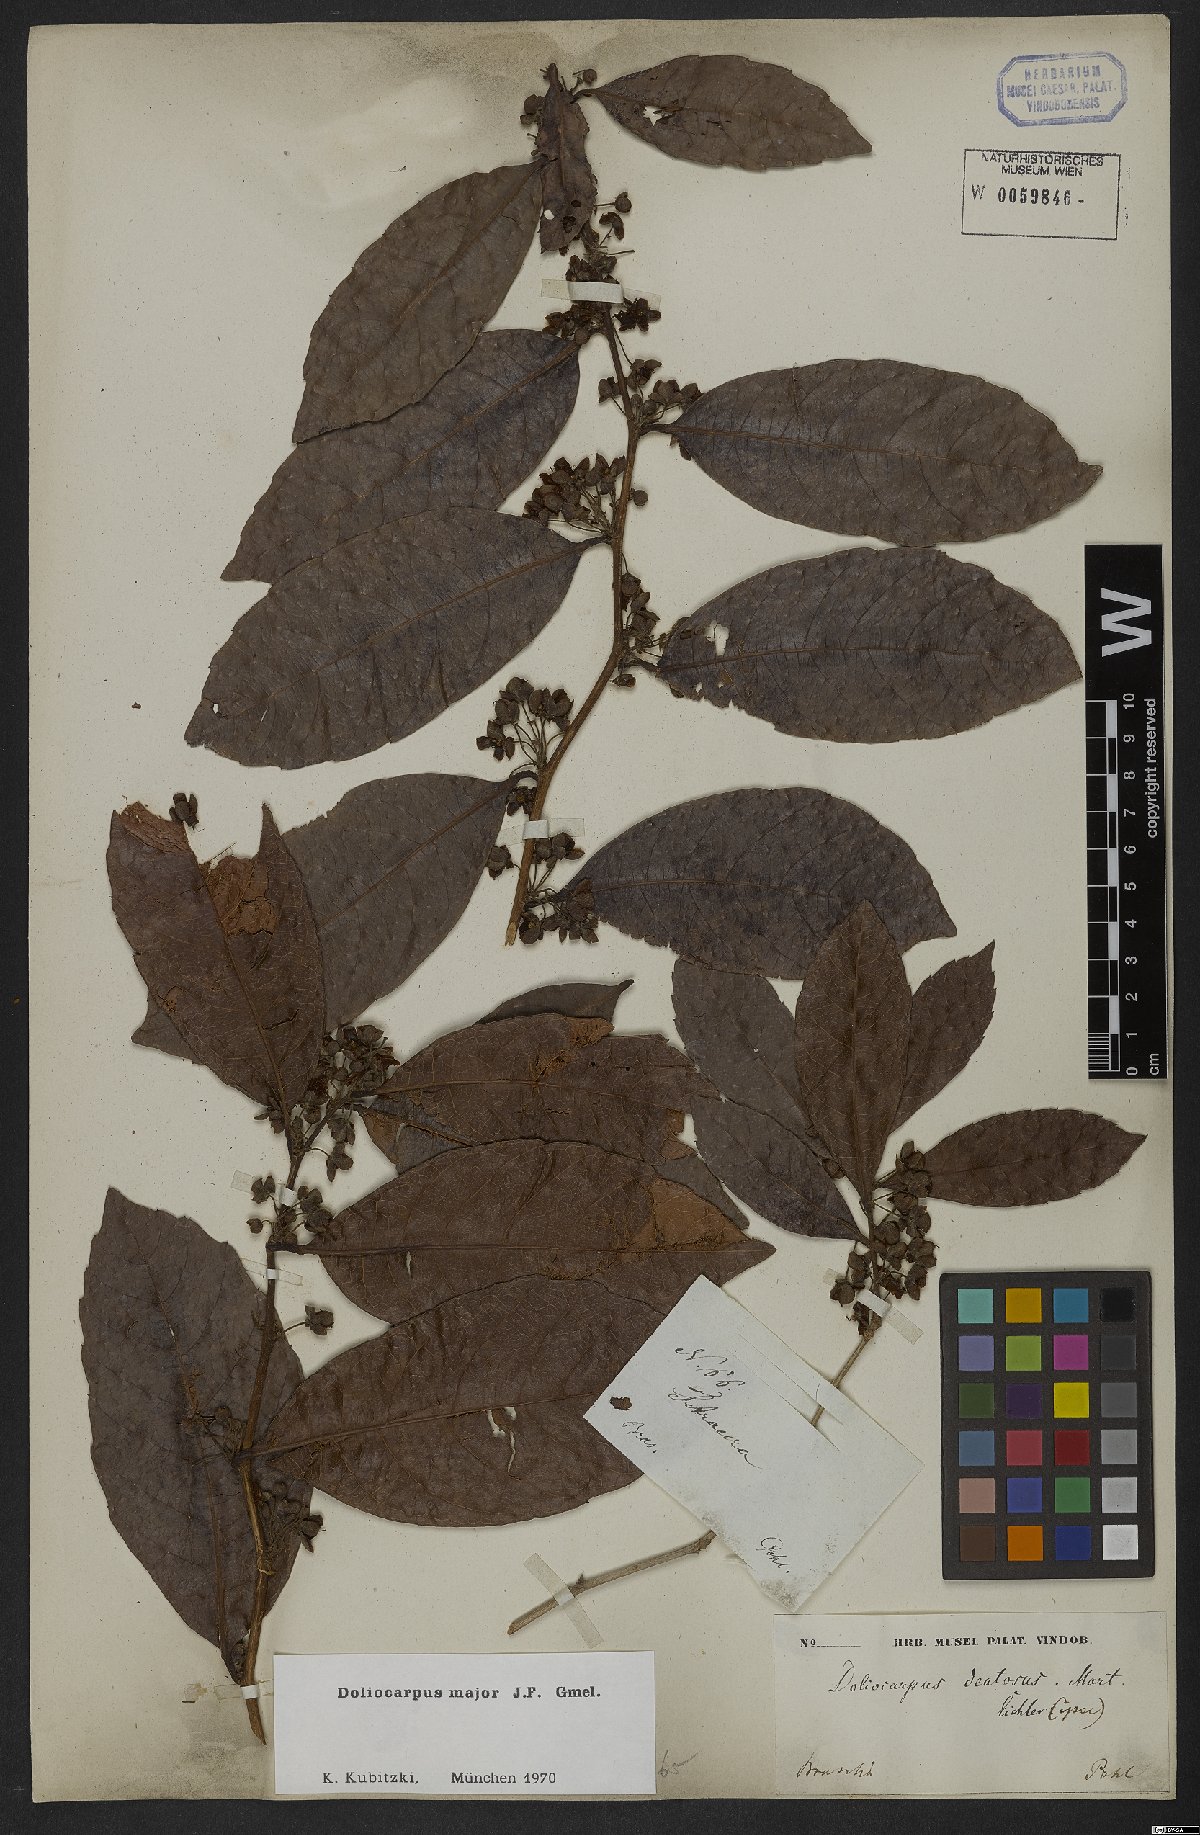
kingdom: Plantae
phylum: Tracheophyta
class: Magnoliopsida
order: Dilleniales
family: Dilleniaceae
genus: Doliocarpus
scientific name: Doliocarpus major
